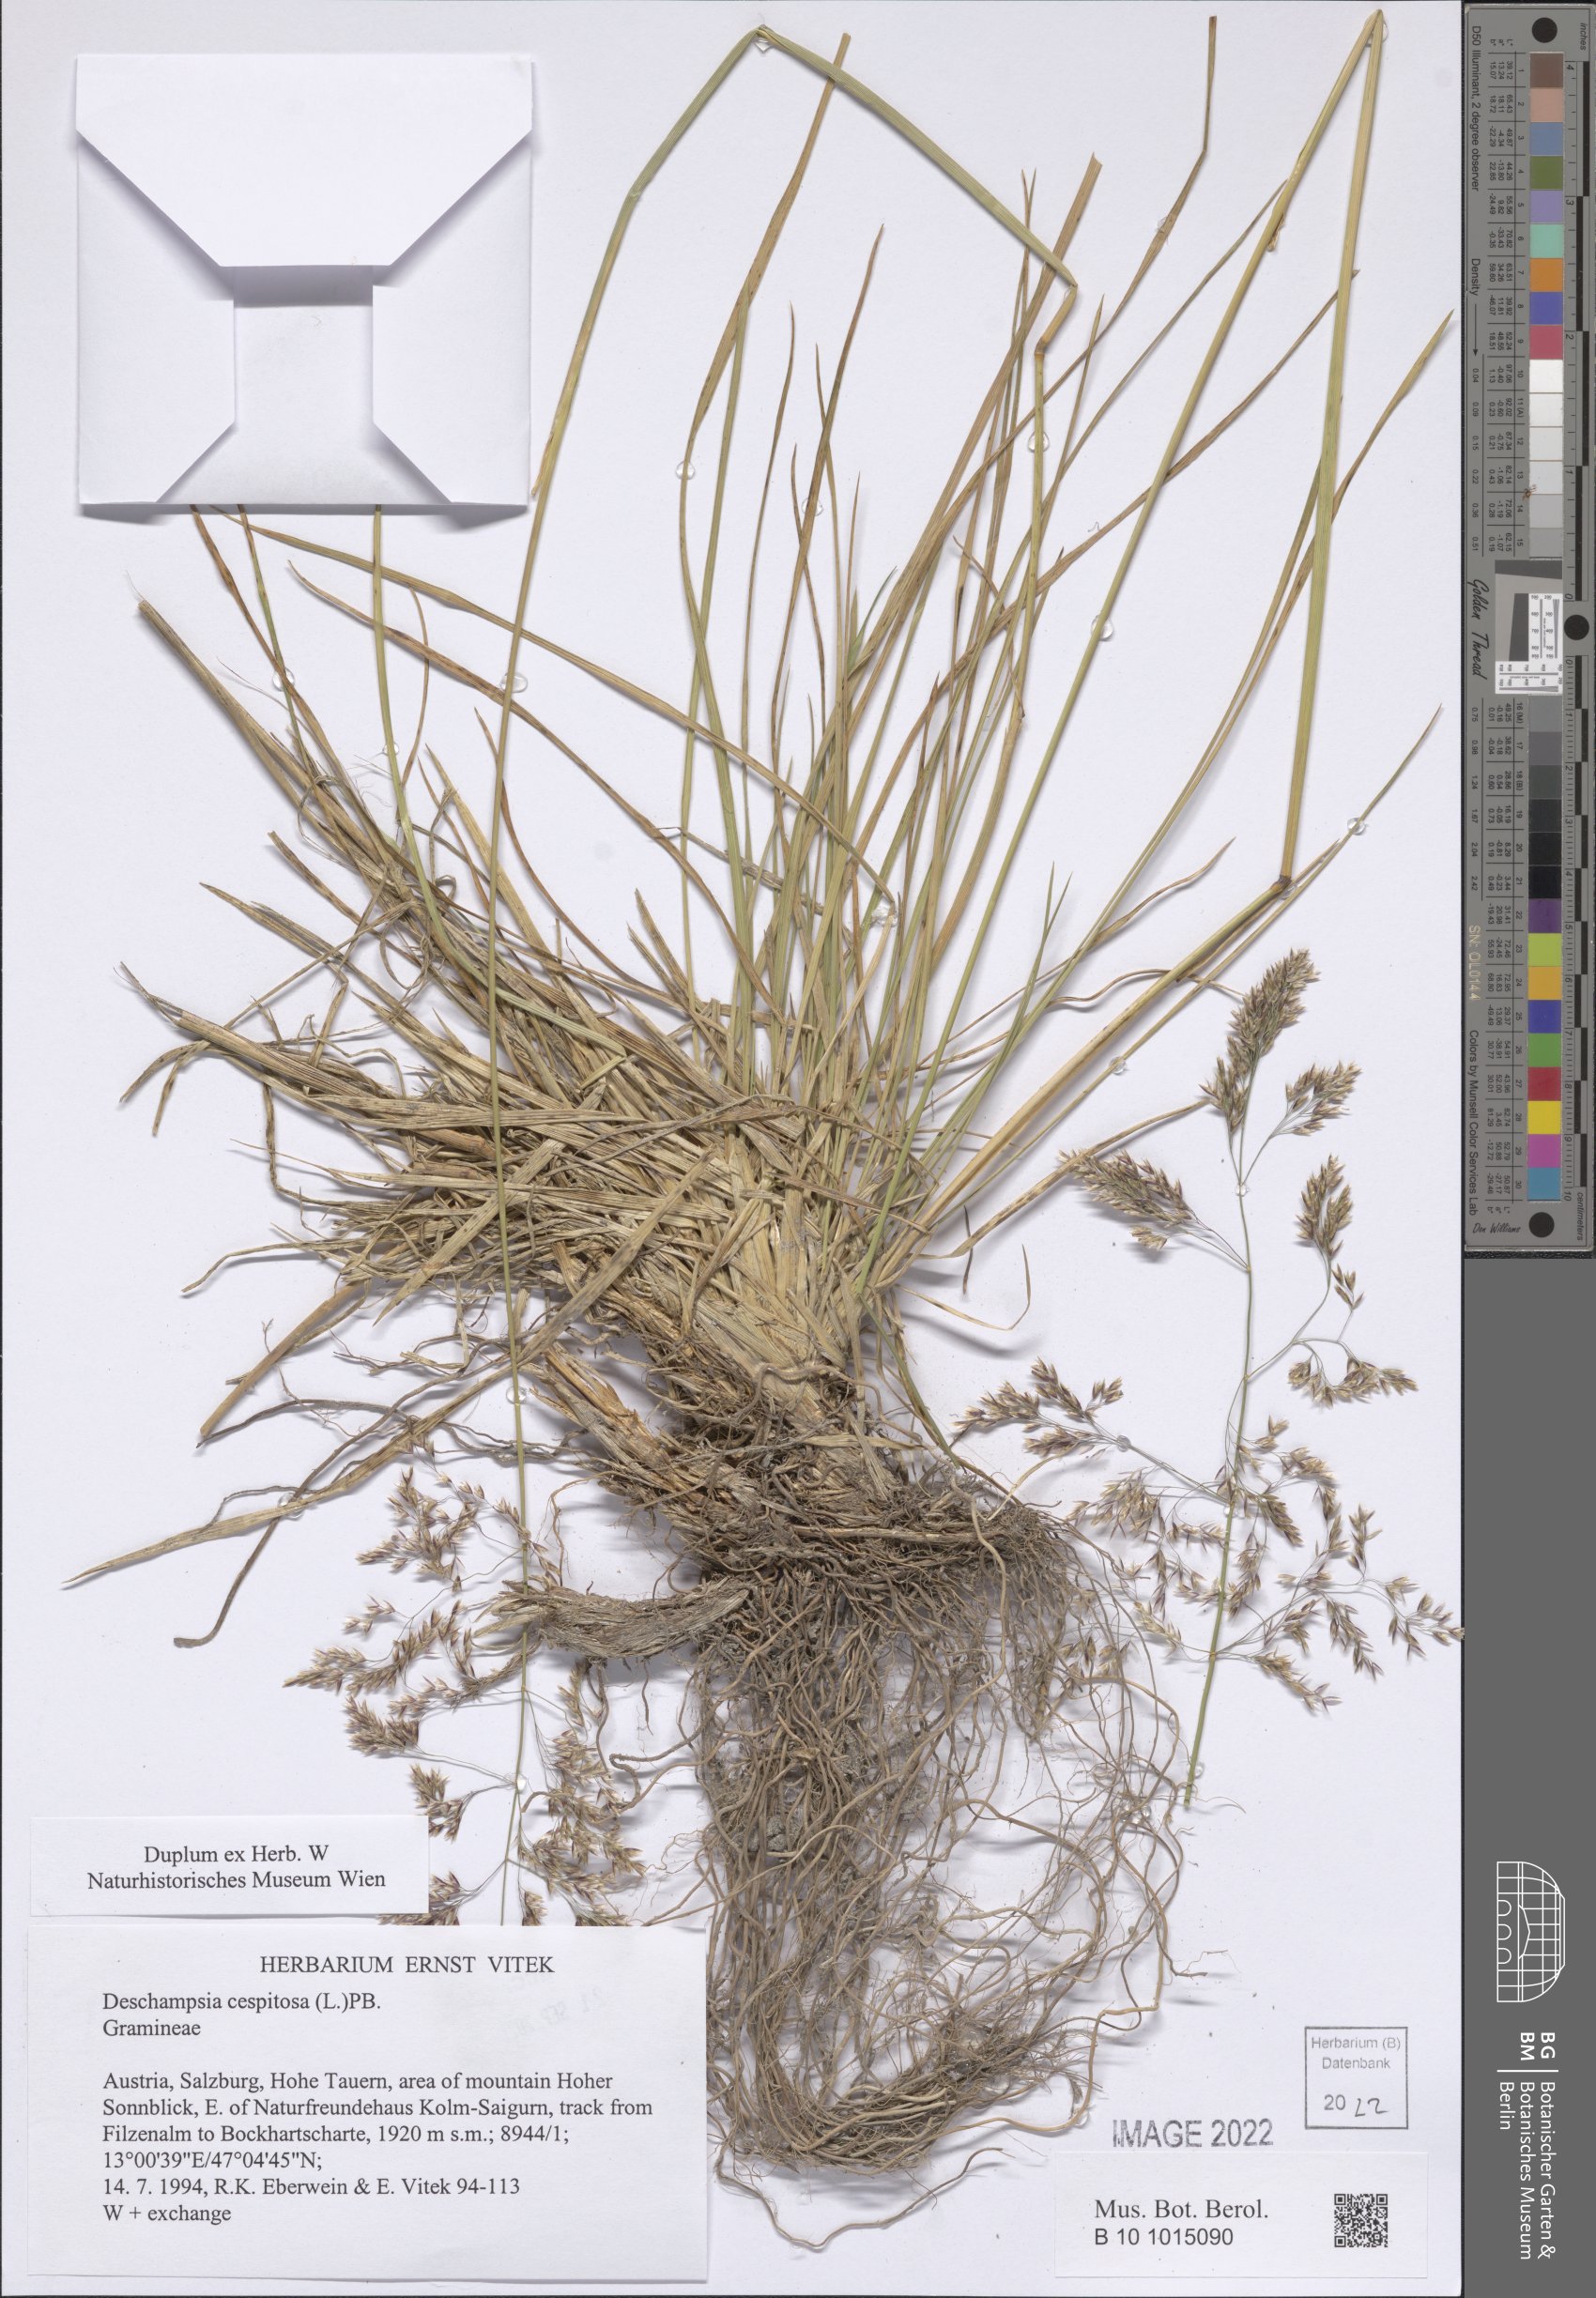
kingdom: Plantae
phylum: Tracheophyta
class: Liliopsida
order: Poales
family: Poaceae
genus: Deschampsia
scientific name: Deschampsia cespitosa
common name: Tufted hair-grass
